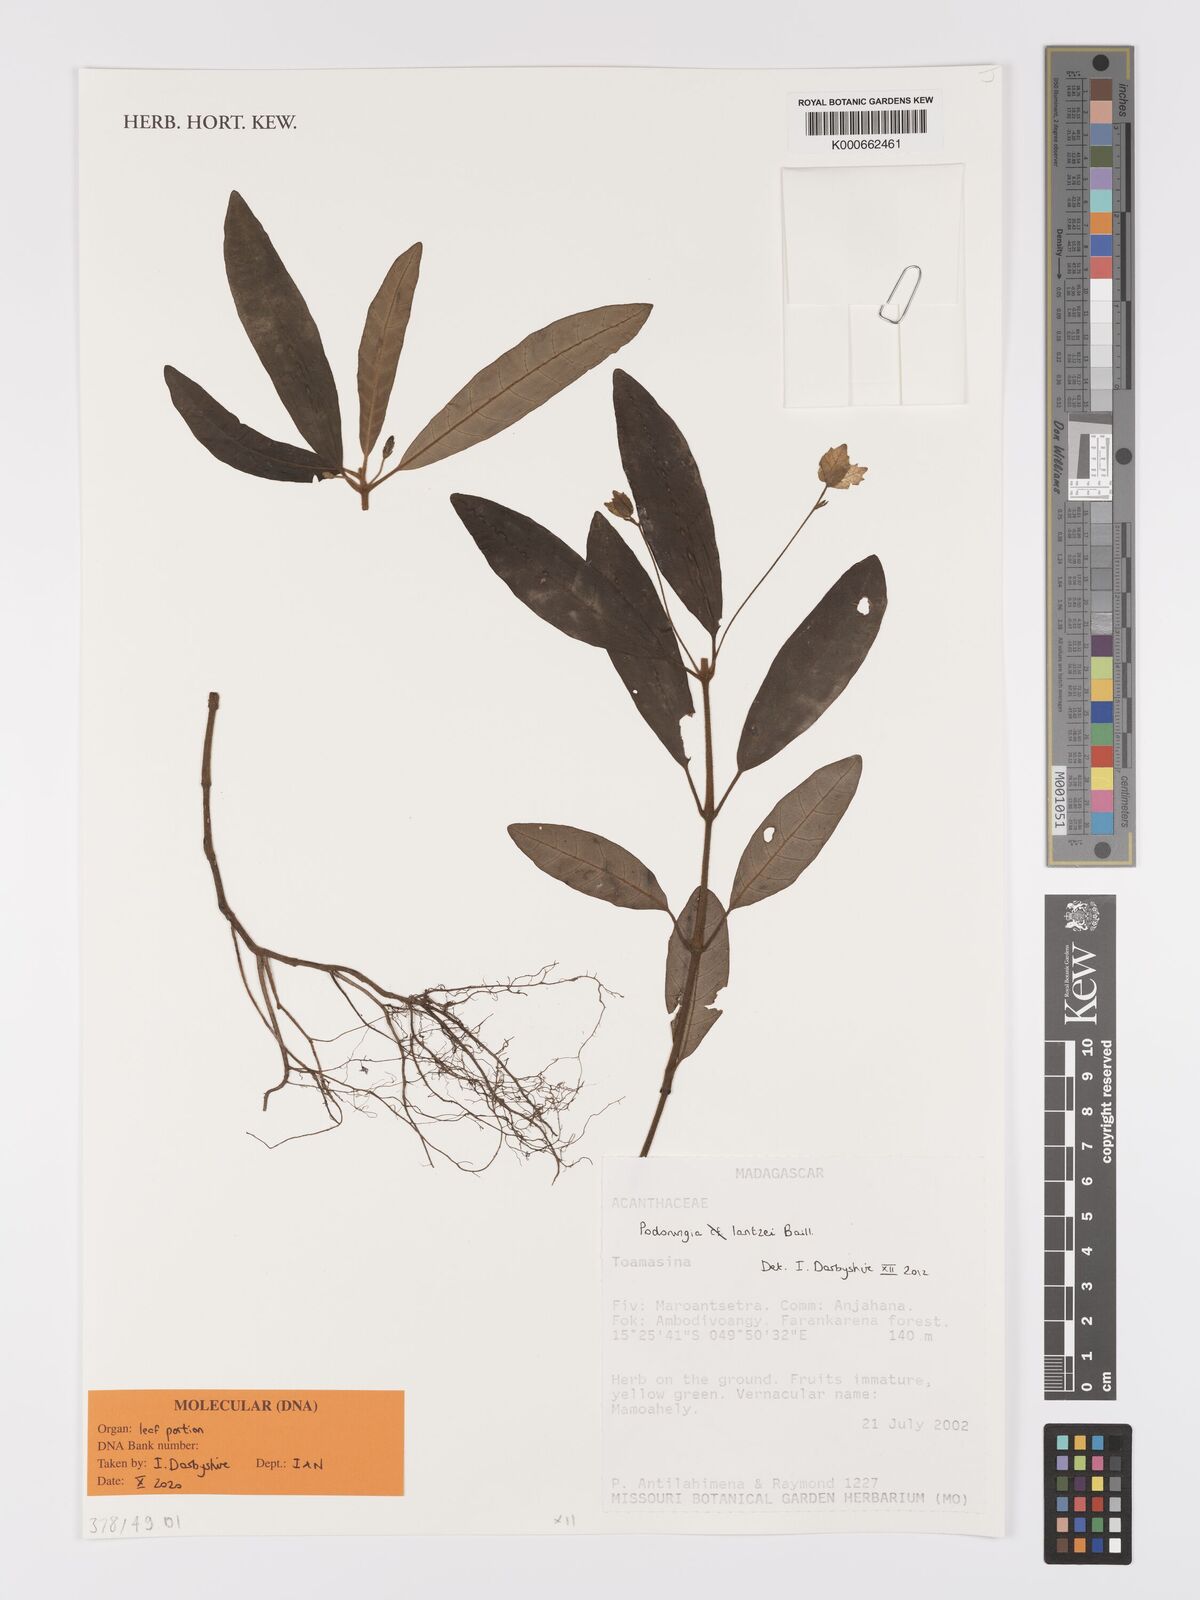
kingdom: Plantae
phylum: Tracheophyta
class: Magnoliopsida
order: Lamiales
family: Acanthaceae
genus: Podorungia
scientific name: Podorungia lantzei
